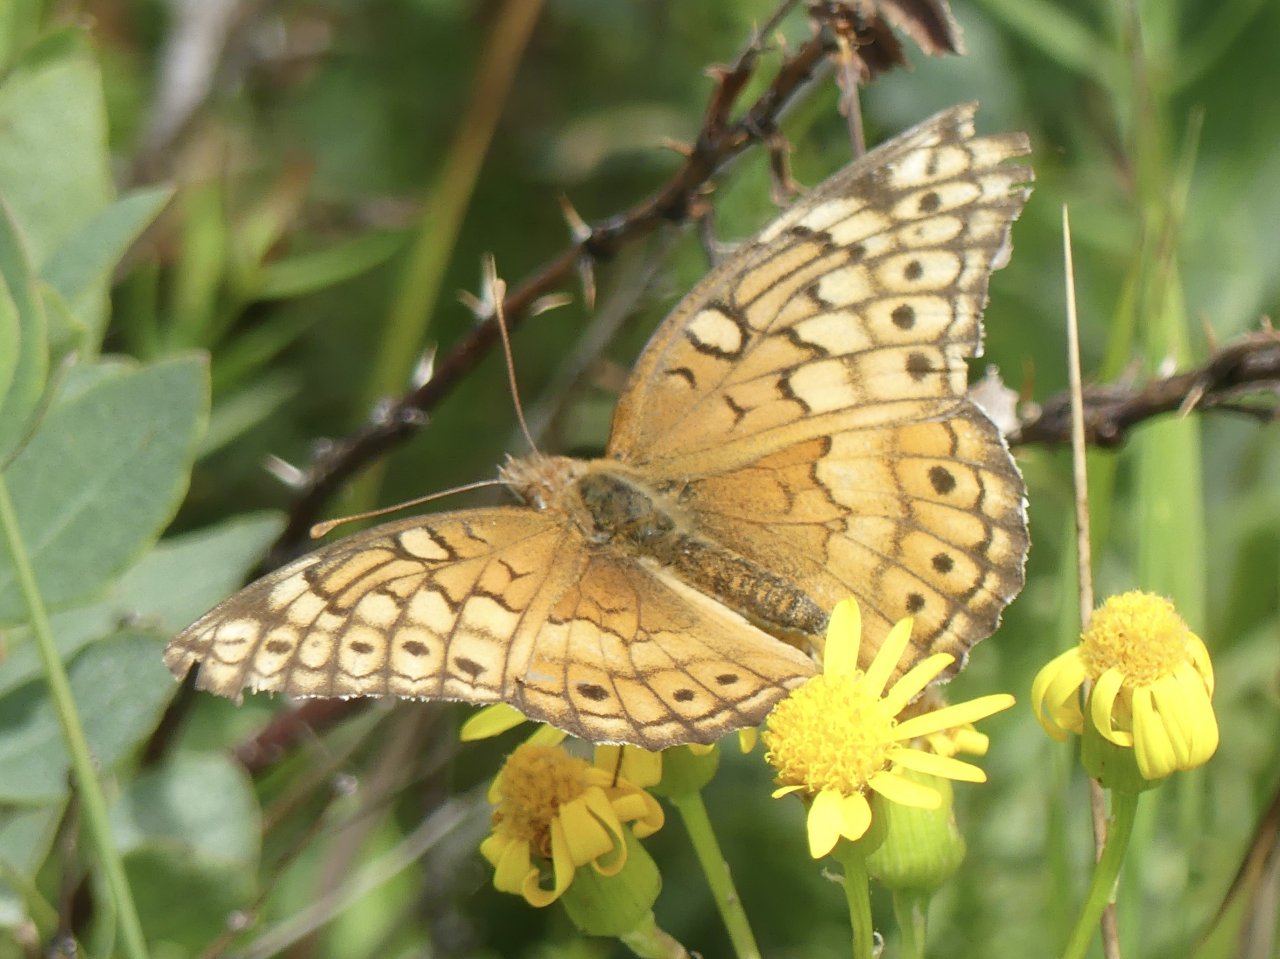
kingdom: Animalia
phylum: Arthropoda
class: Insecta
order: Lepidoptera
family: Nymphalidae
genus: Euptoieta
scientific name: Euptoieta claudia
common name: Variegated Fritillary
